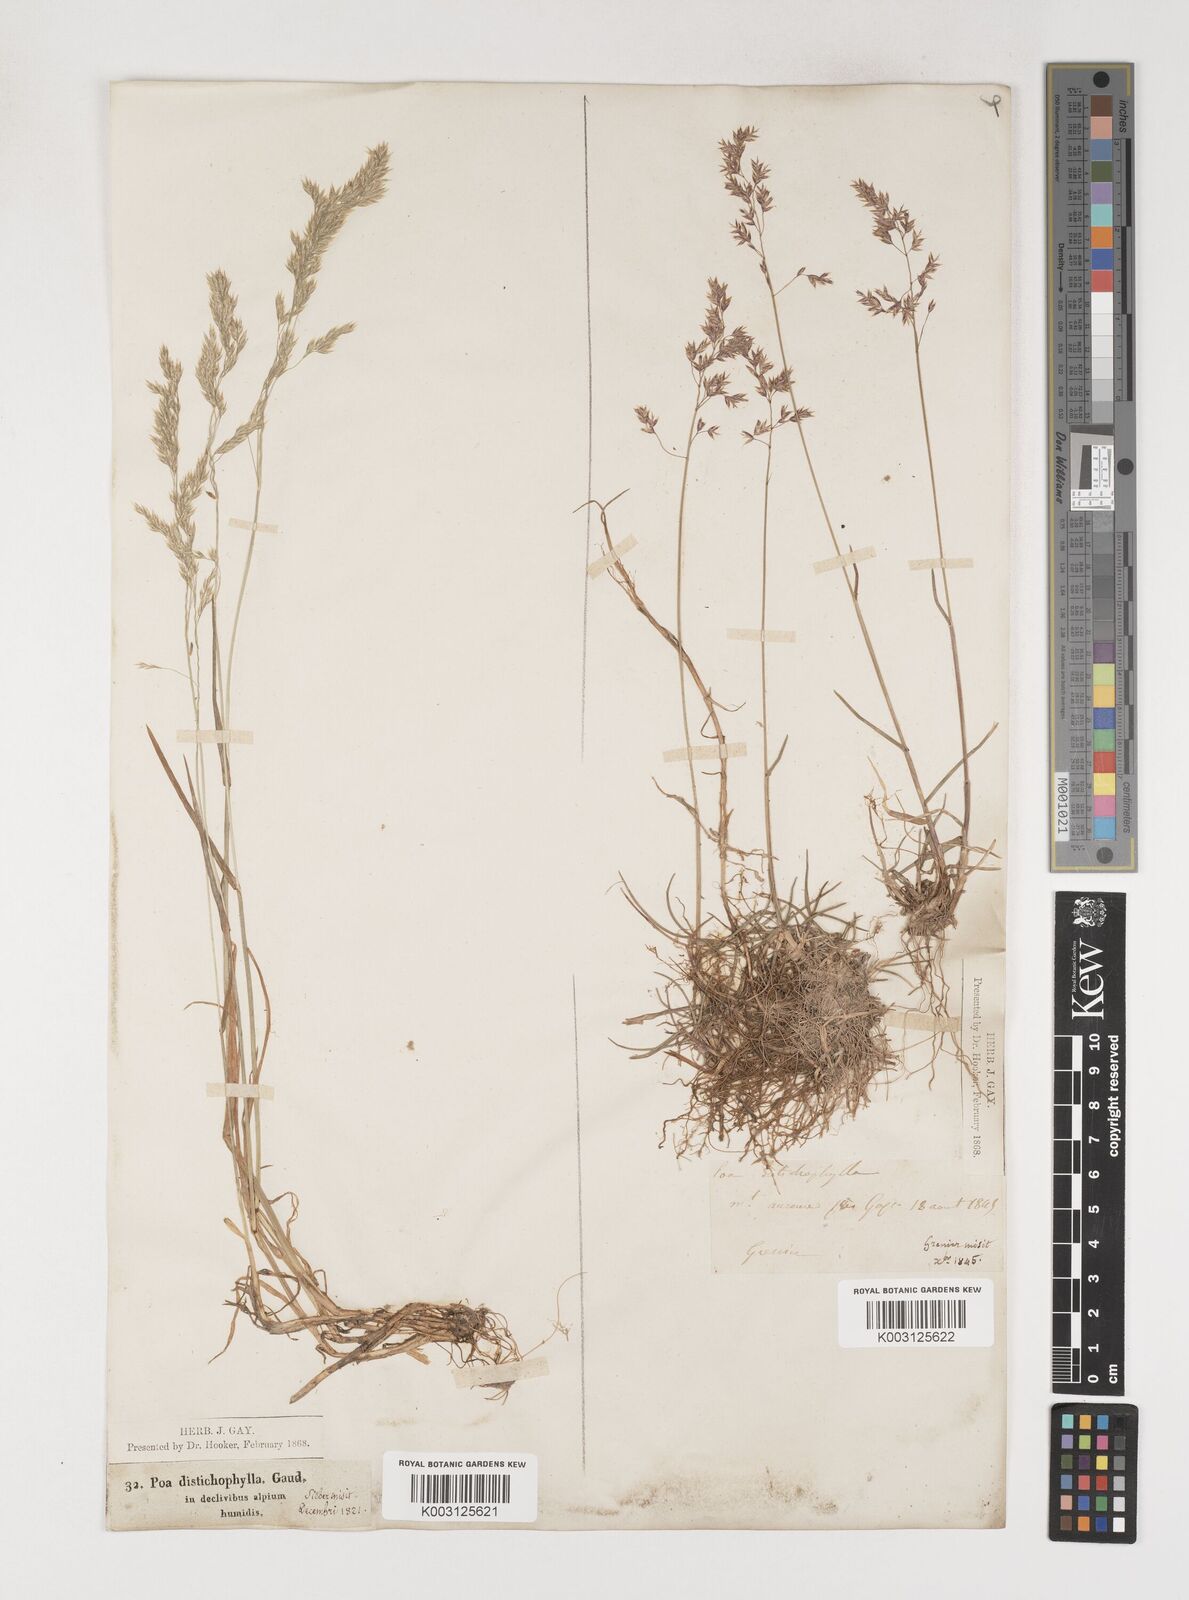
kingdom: Plantae
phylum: Tracheophyta
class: Liliopsida
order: Poales
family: Poaceae
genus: Poa
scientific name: Poa cenisia
